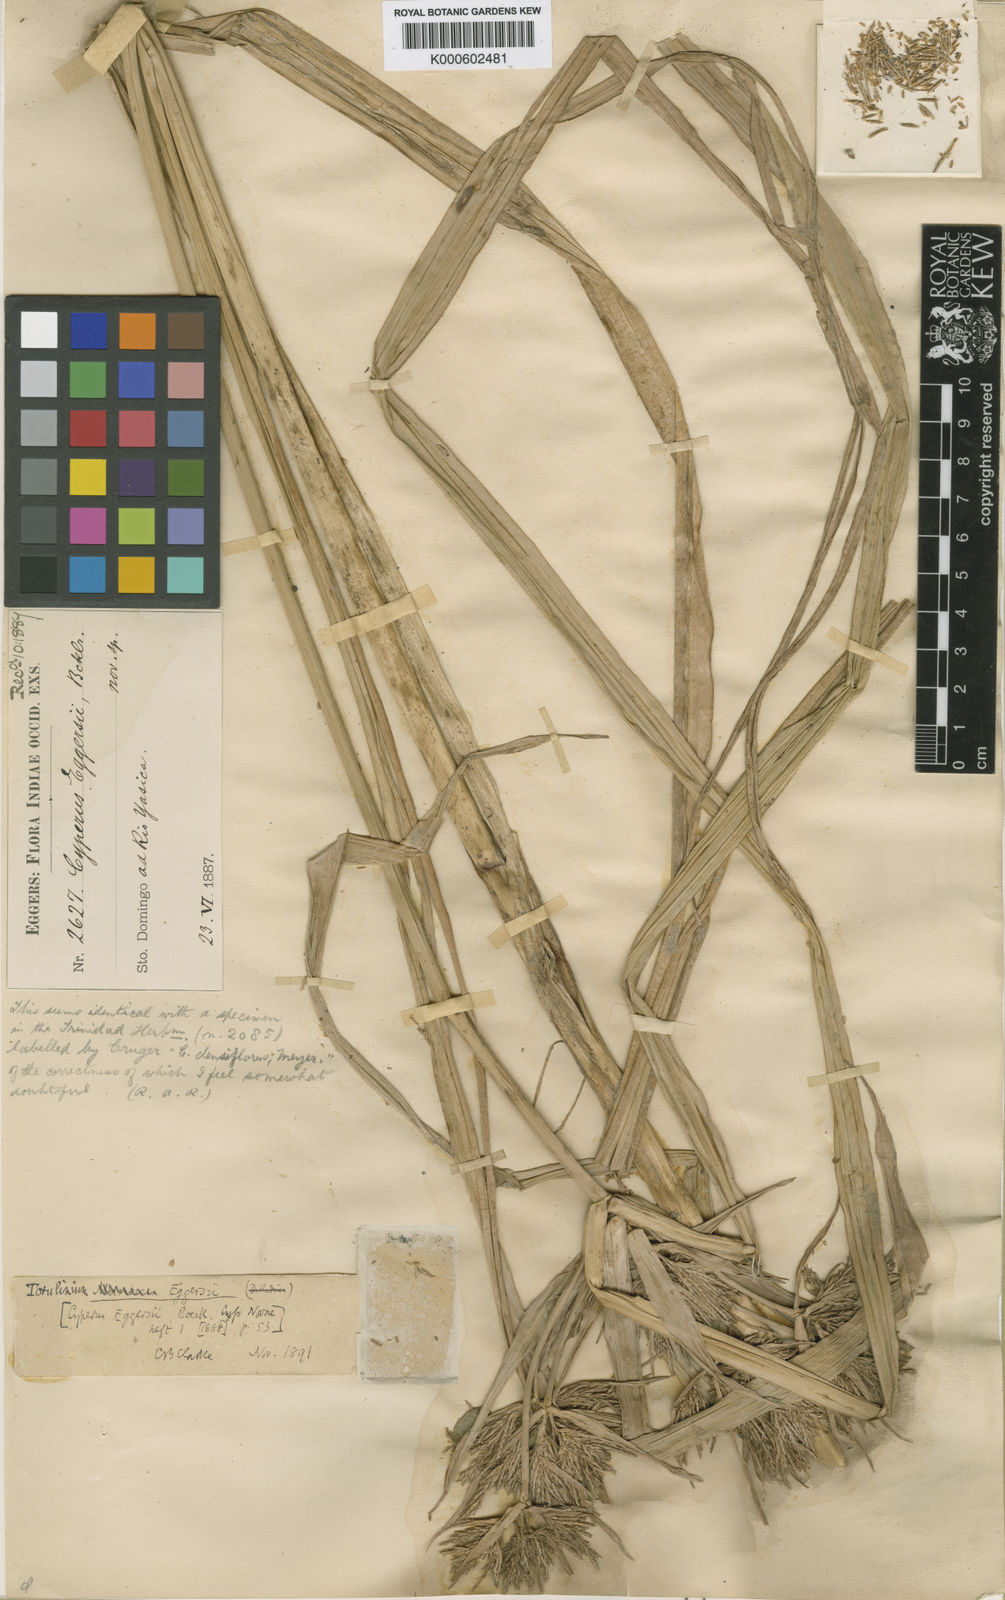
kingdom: Plantae
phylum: Tracheophyta
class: Liliopsida
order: Poales
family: Cyperaceae
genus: Cyperus
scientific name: Cyperus odoratus
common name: Fragrant flatsedge
